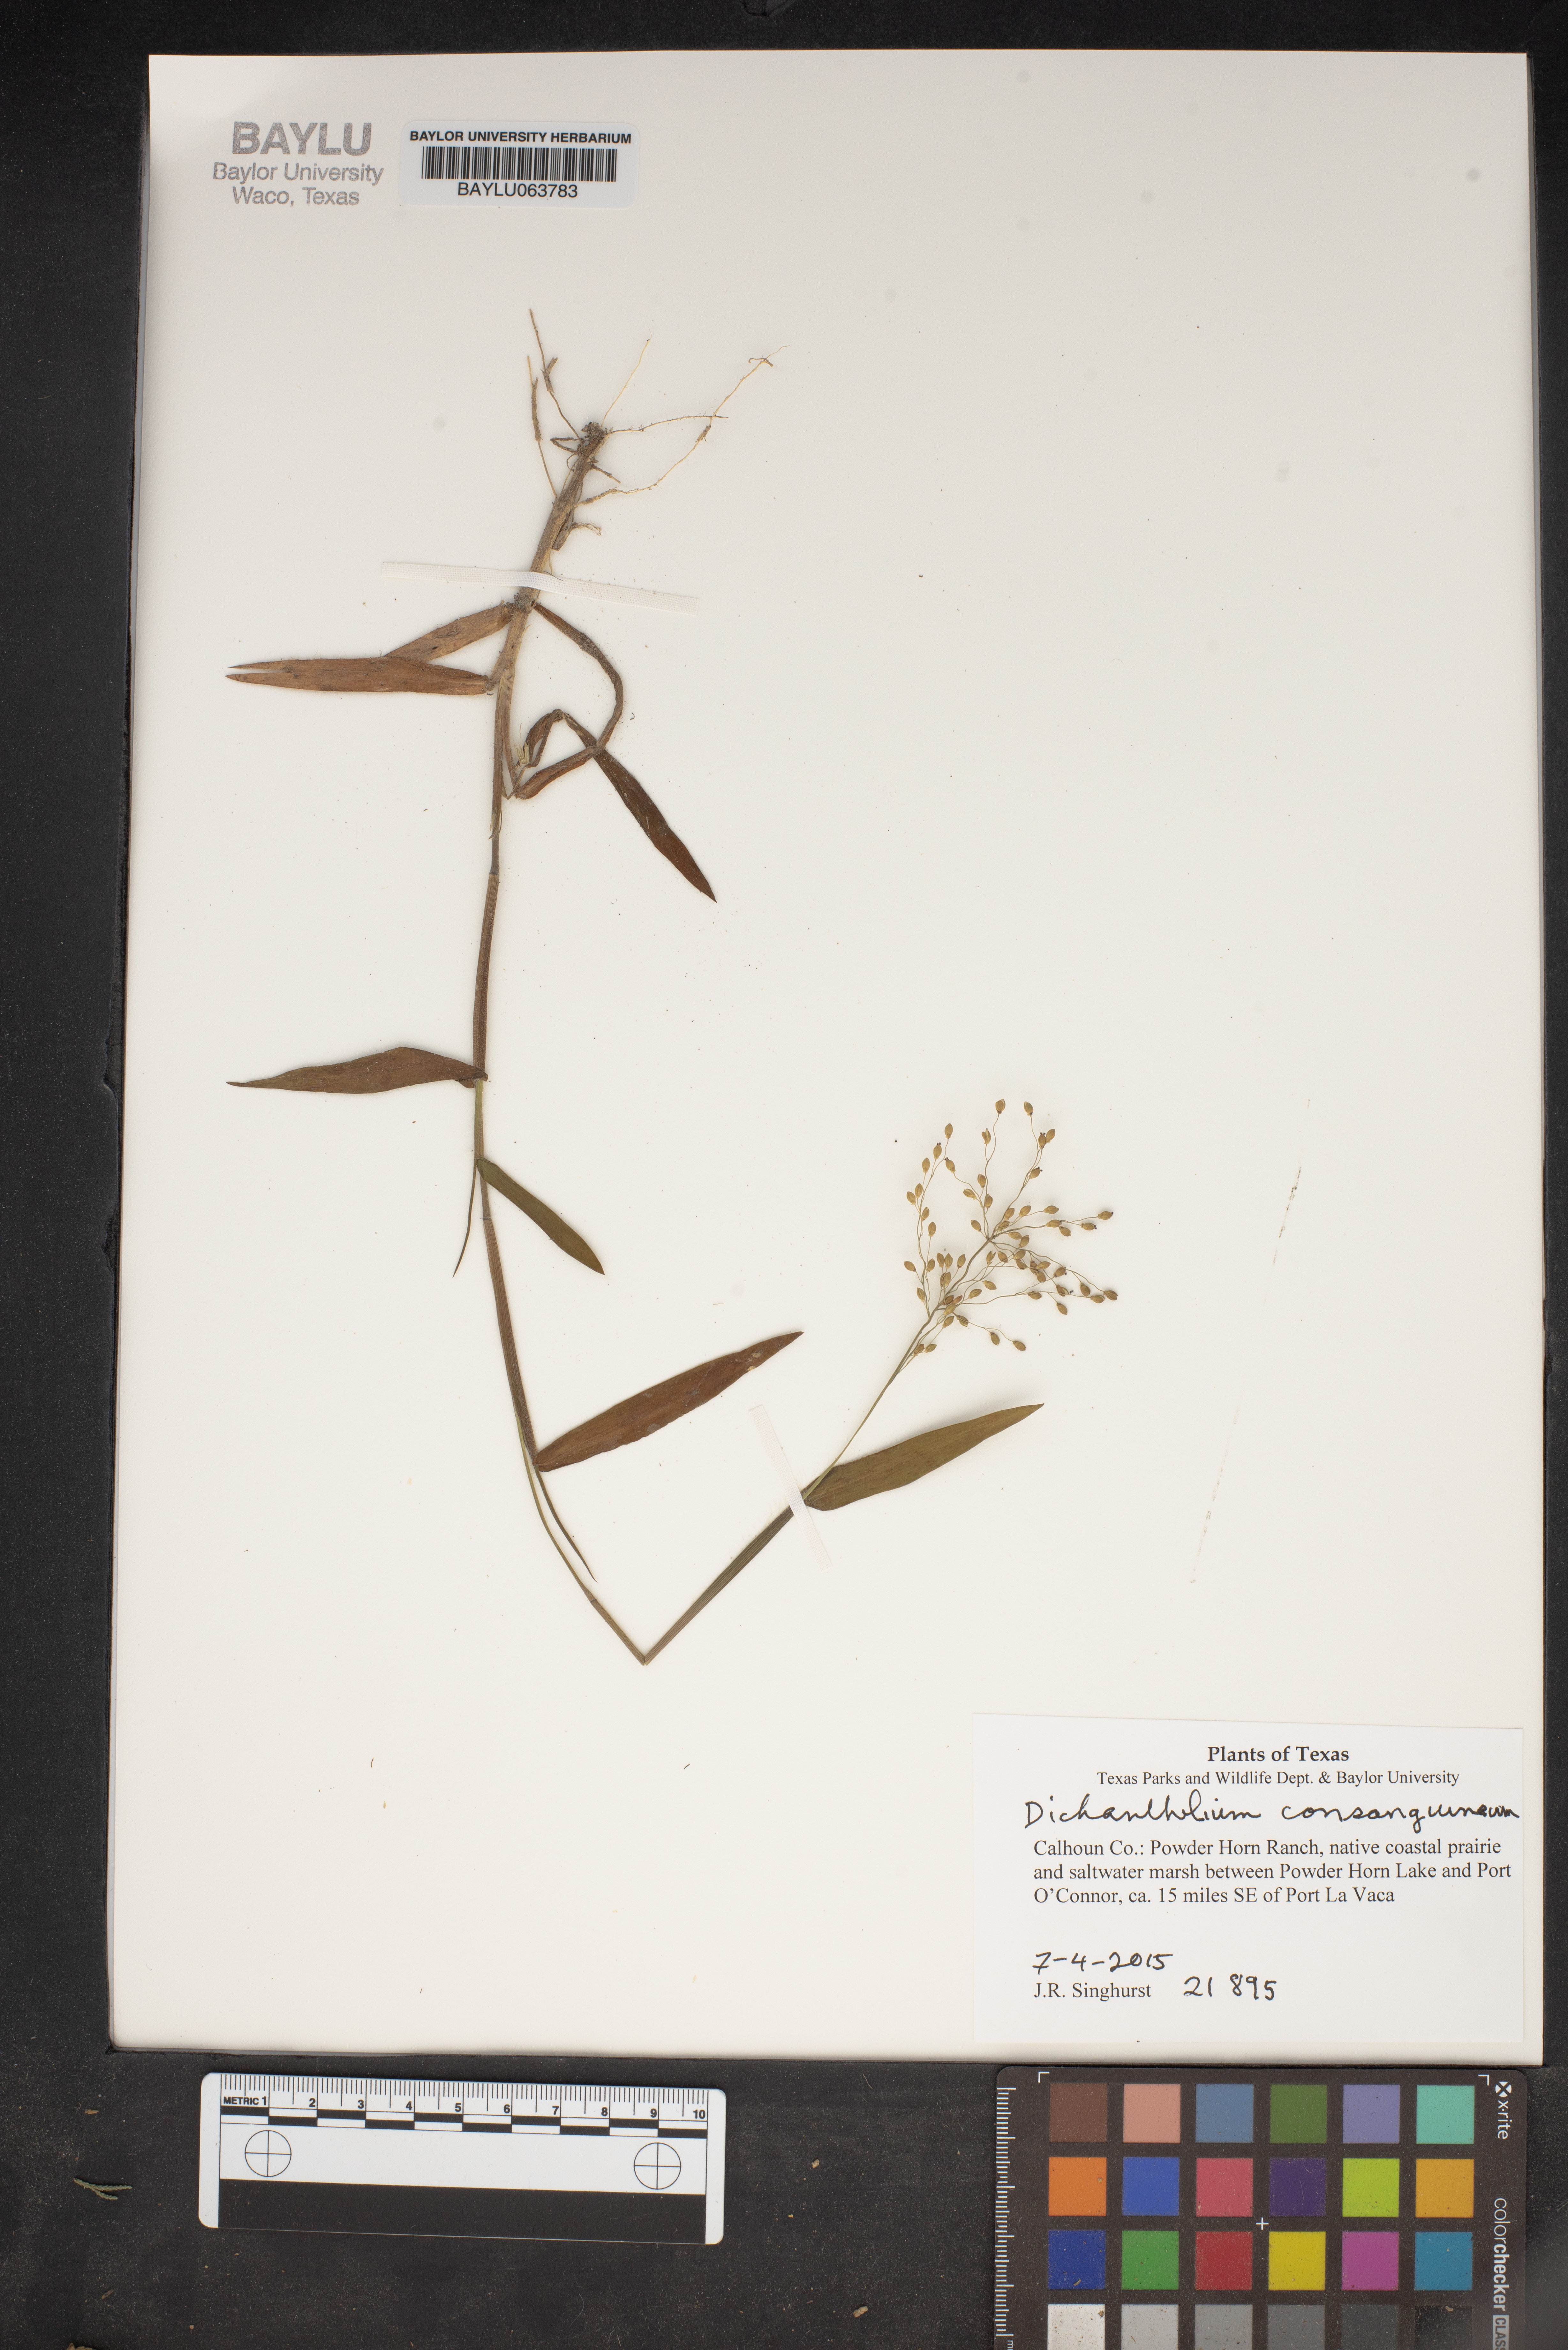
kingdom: Plantae
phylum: Tracheophyta
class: Liliopsida
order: Poales
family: Poaceae
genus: Dichanthelium
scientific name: Dichanthelium consanguineum
